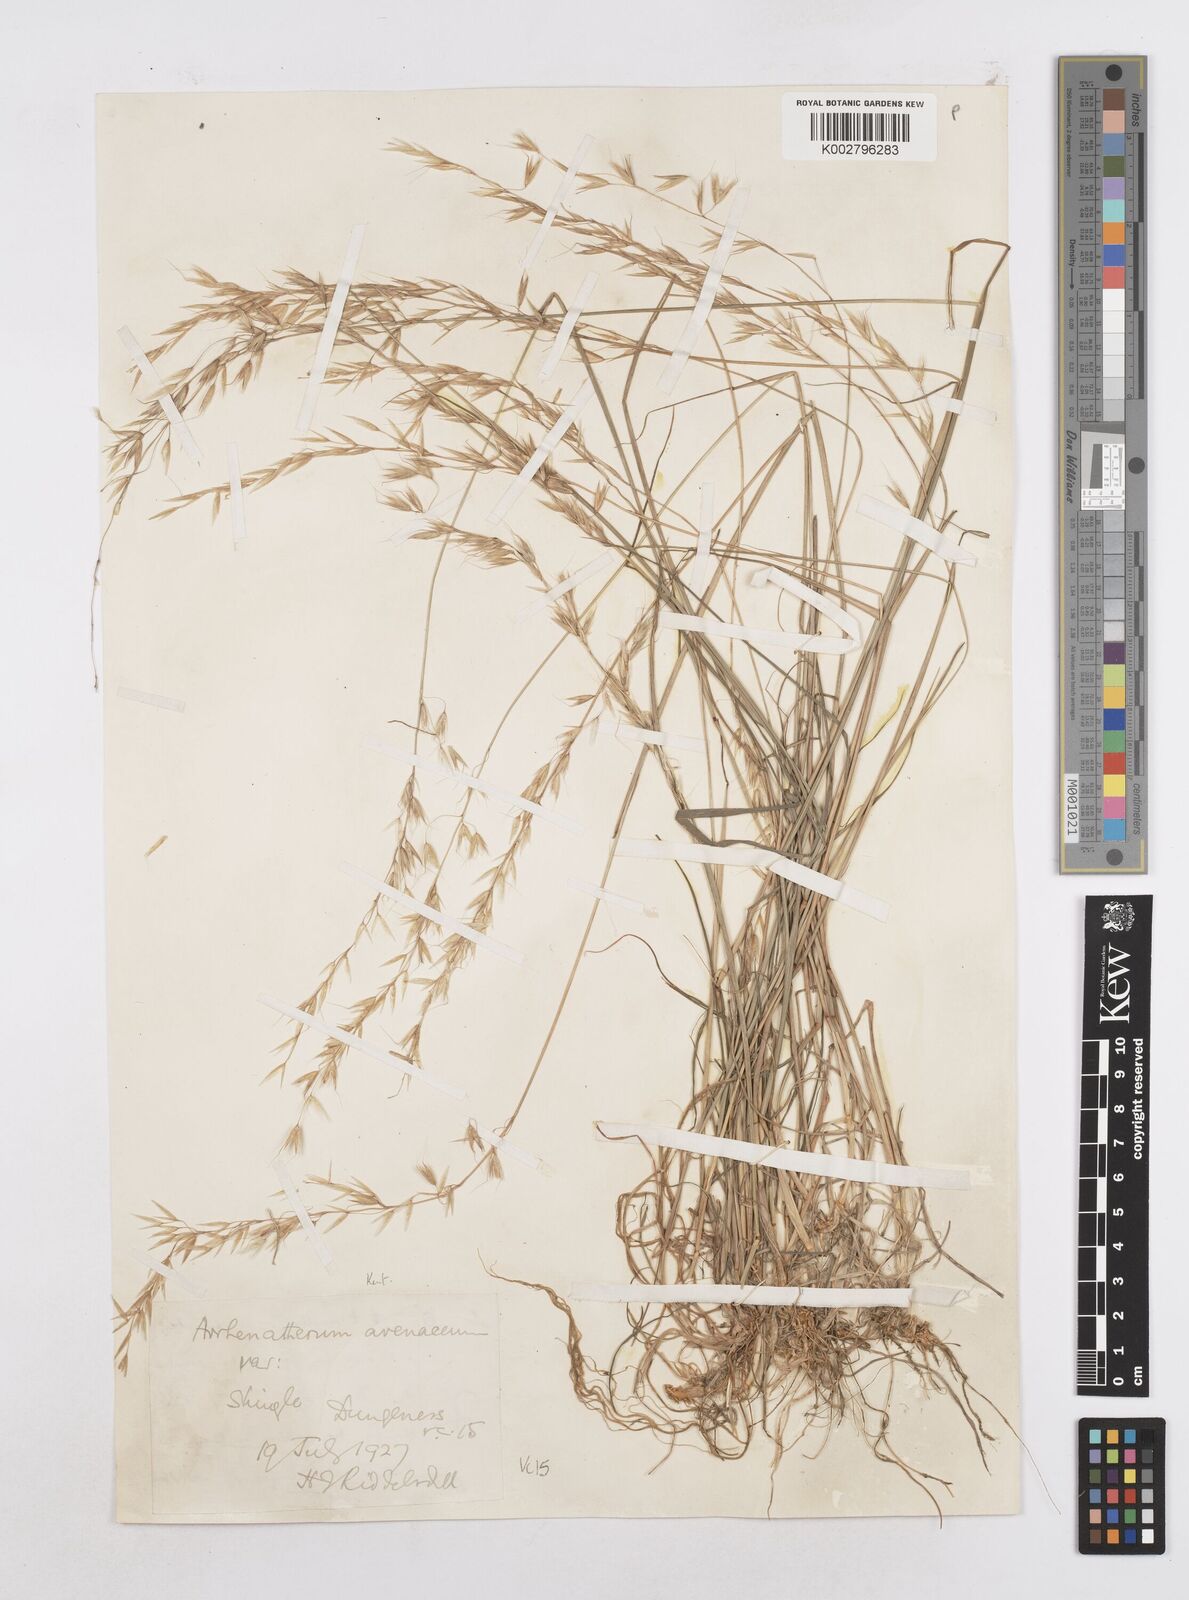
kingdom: Plantae
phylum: Tracheophyta
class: Liliopsida
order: Poales
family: Poaceae
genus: Arrhenatherum
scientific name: Arrhenatherum elatius
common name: Tall oatgrass
